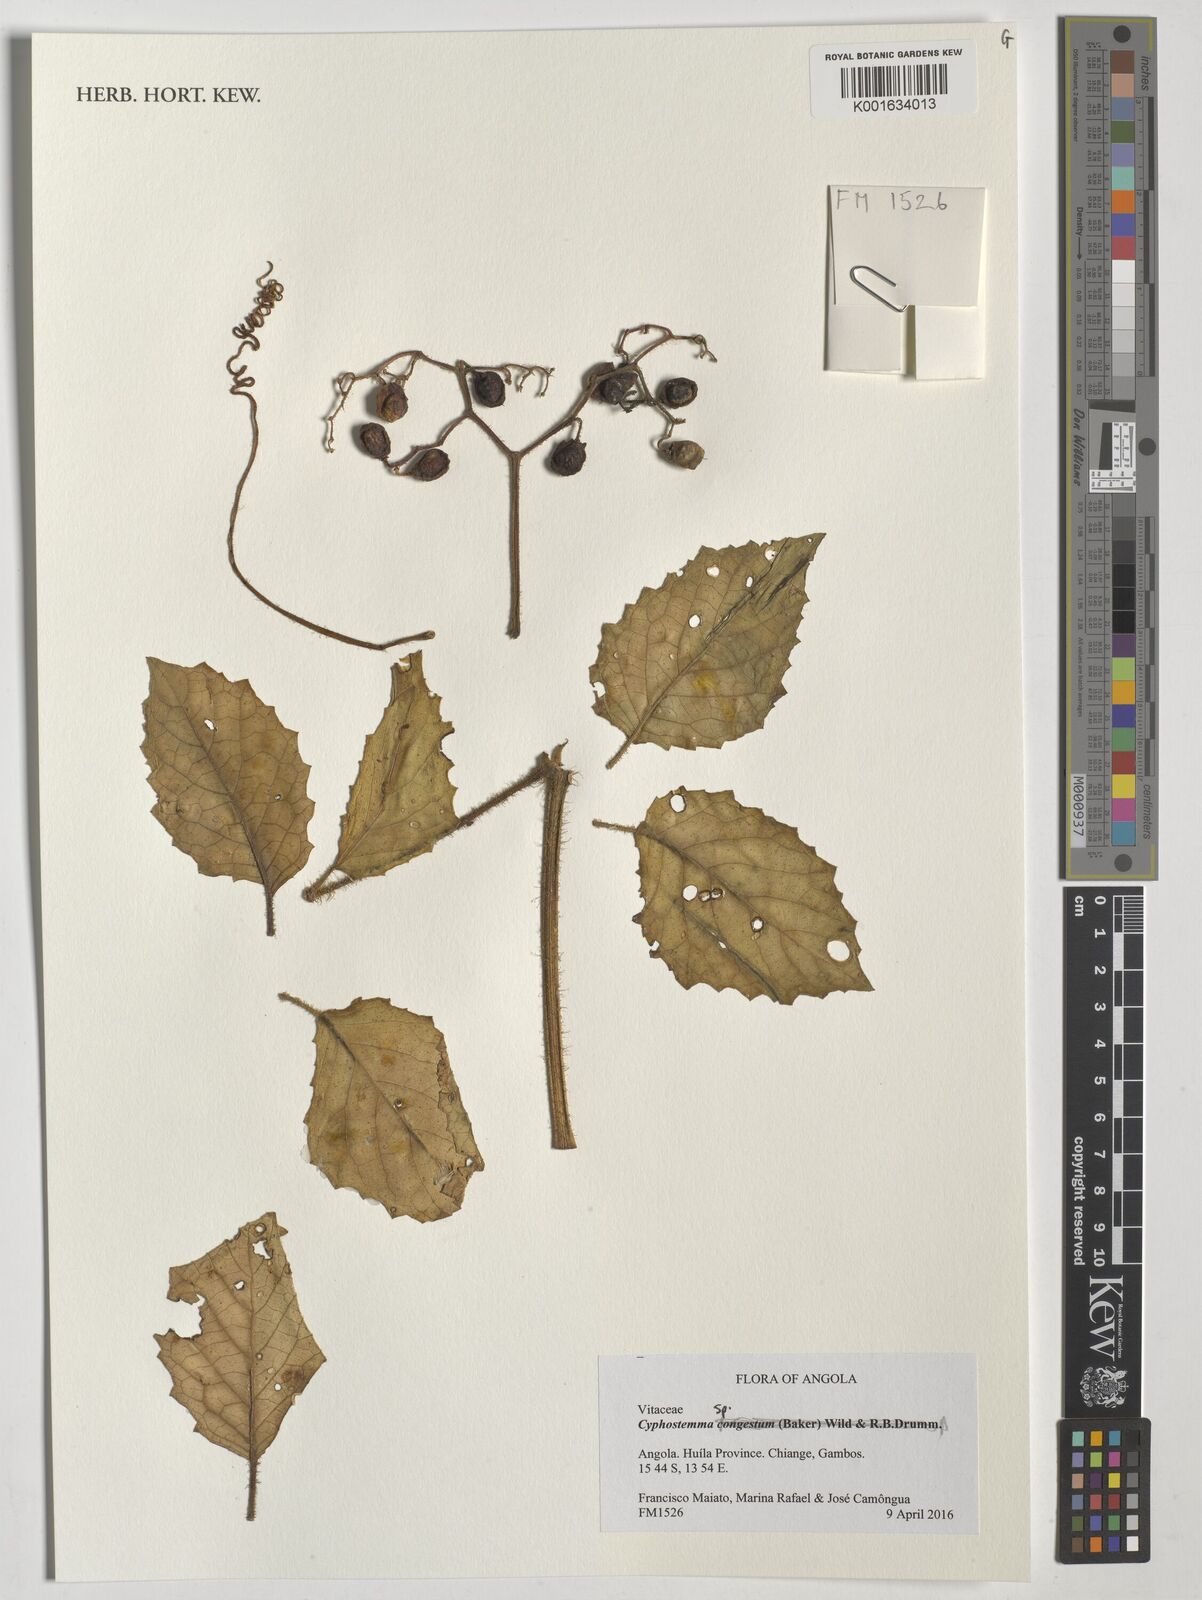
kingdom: Plantae
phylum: Tracheophyta
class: Magnoliopsida
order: Vitales
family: Vitaceae
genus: Cyphostemma
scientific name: Cyphostemma
